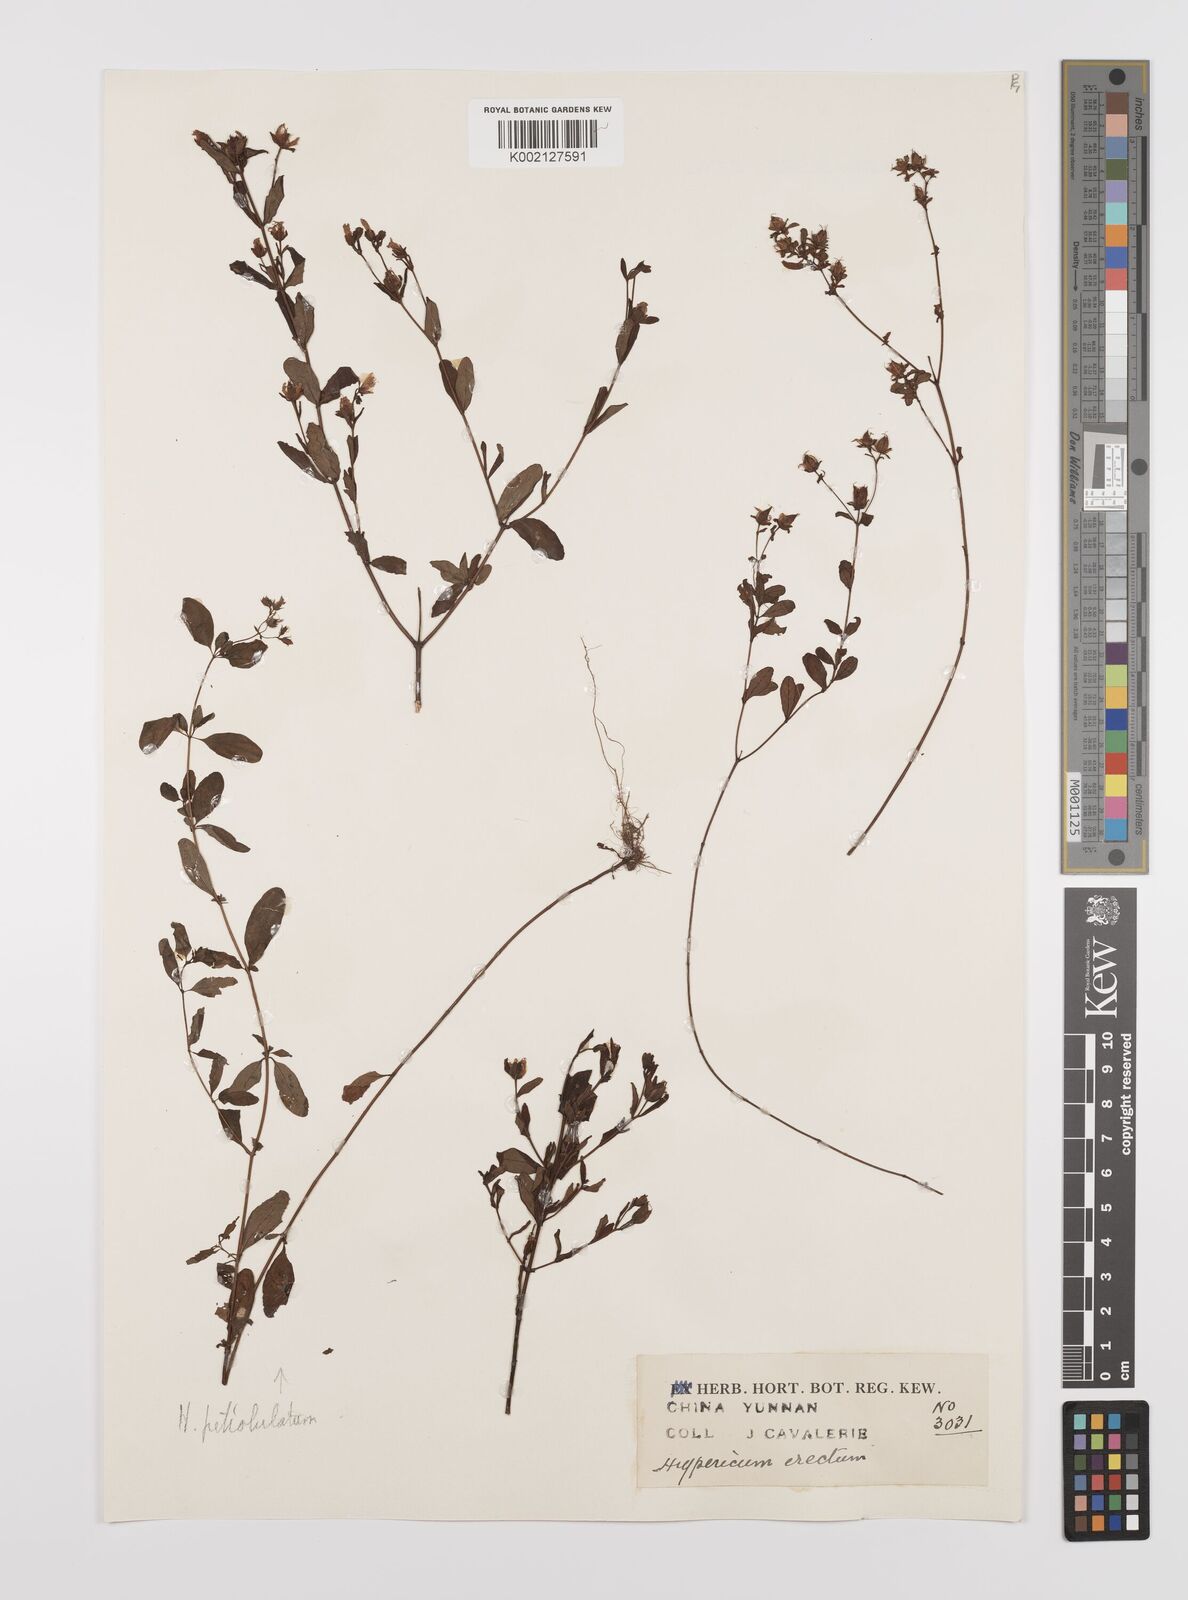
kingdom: Plantae
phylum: Tracheophyta
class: Magnoliopsida
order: Malpighiales
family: Hypericaceae
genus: Hypericum
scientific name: Hypericum petiolulatum
